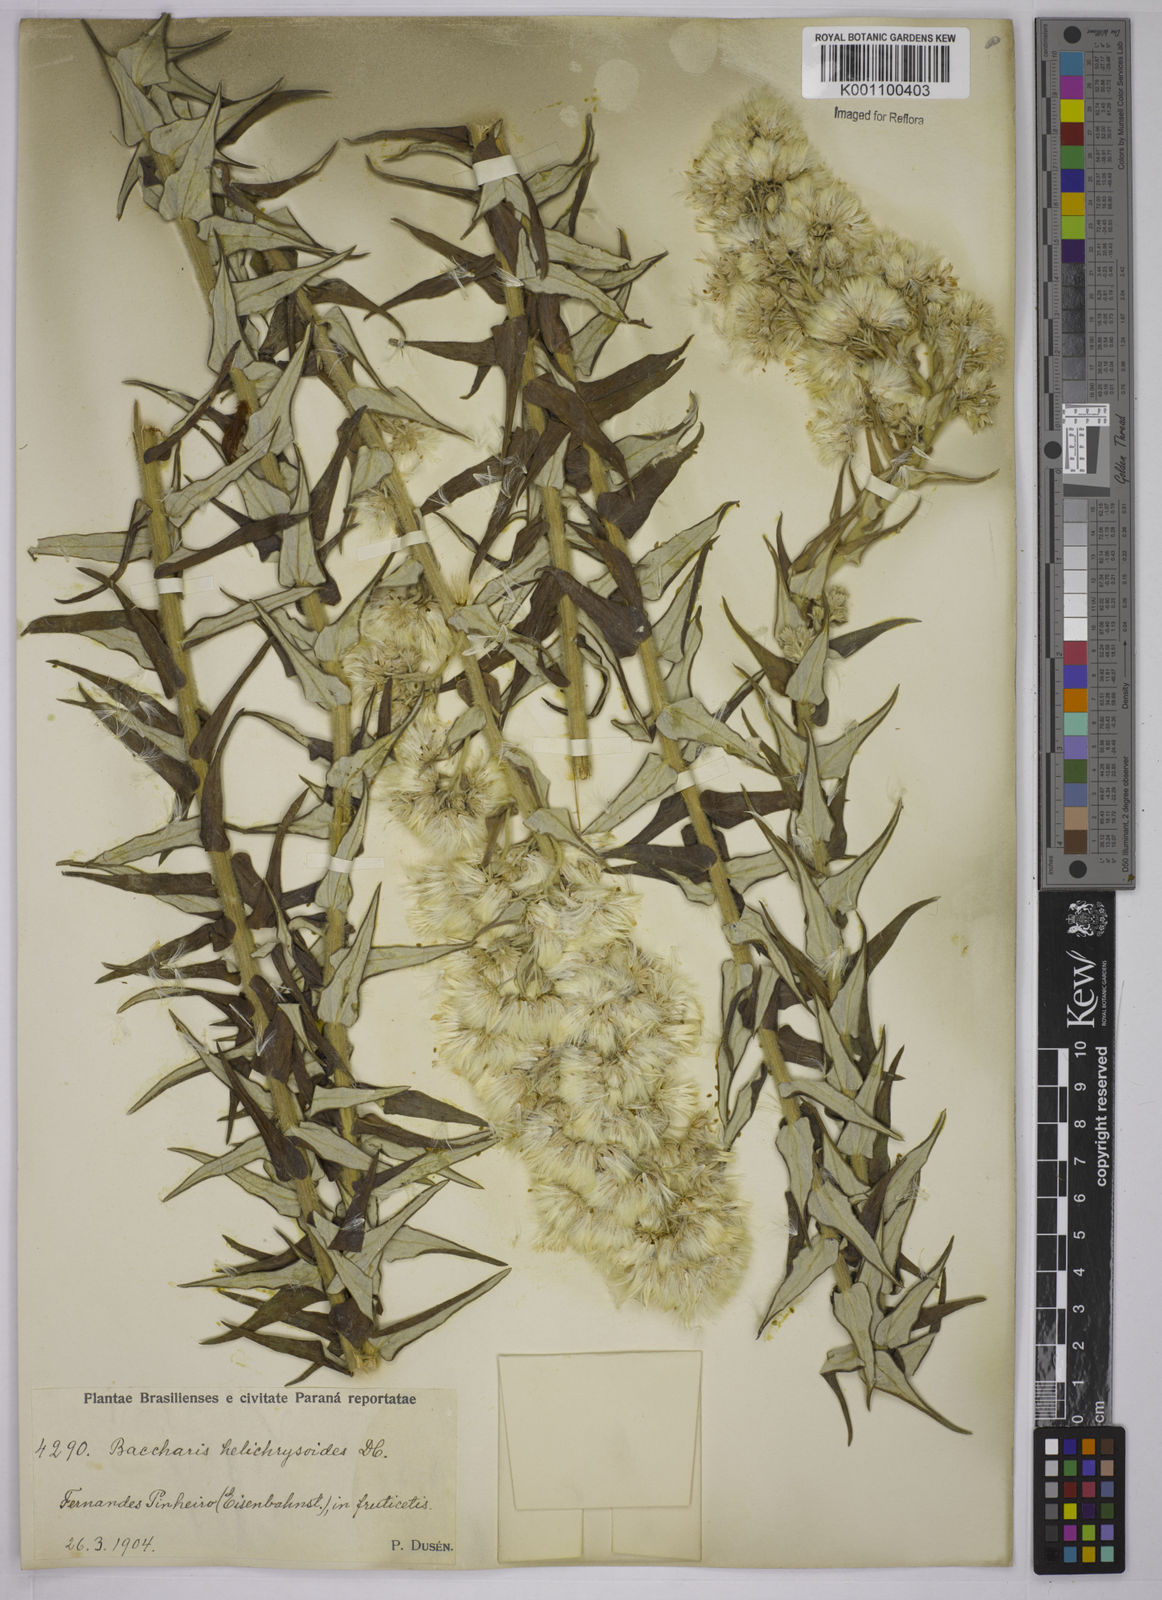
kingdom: Plantae
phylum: Tracheophyta
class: Magnoliopsida
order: Asterales
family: Asteraceae
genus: Baccharis
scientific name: Baccharis helichrysoides
